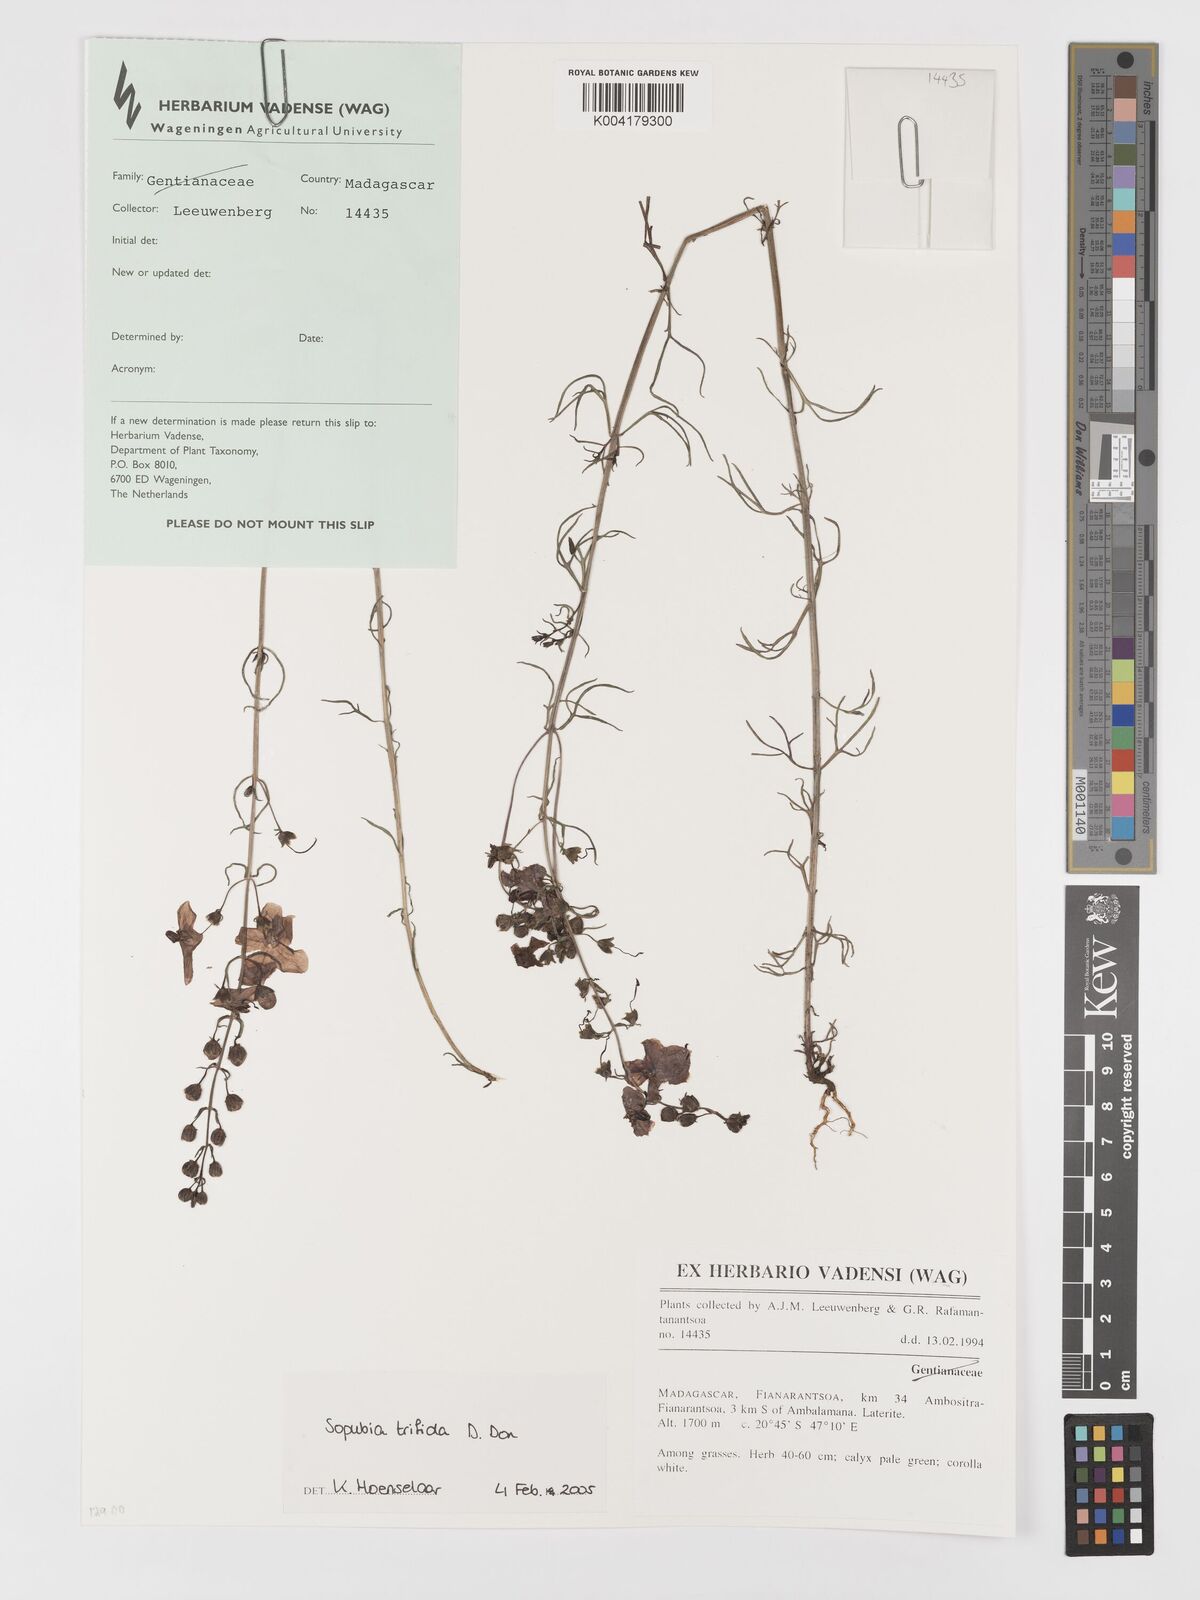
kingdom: Plantae
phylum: Tracheophyta
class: Magnoliopsida
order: Lamiales
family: Orobanchaceae
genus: Sopubia
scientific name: Sopubia trifida
